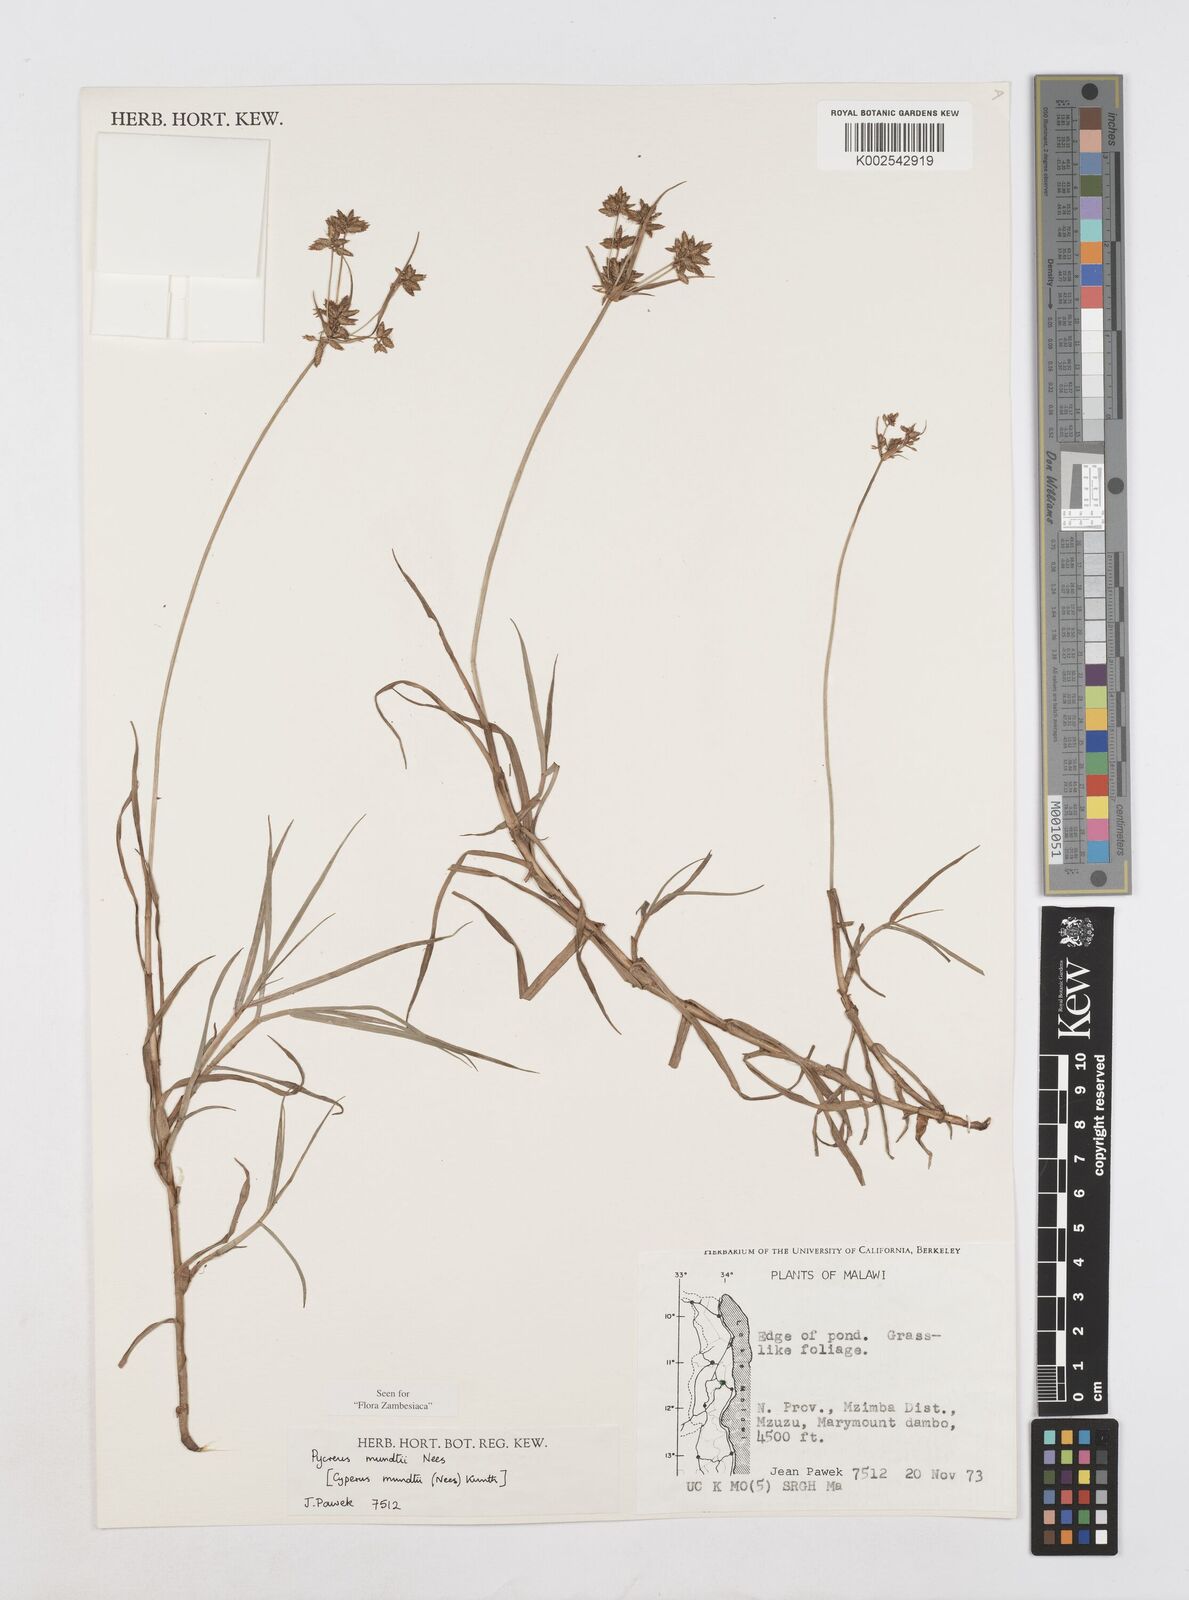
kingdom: Plantae
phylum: Tracheophyta
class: Liliopsida
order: Poales
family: Cyperaceae
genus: Cyperus
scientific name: Cyperus mundii
